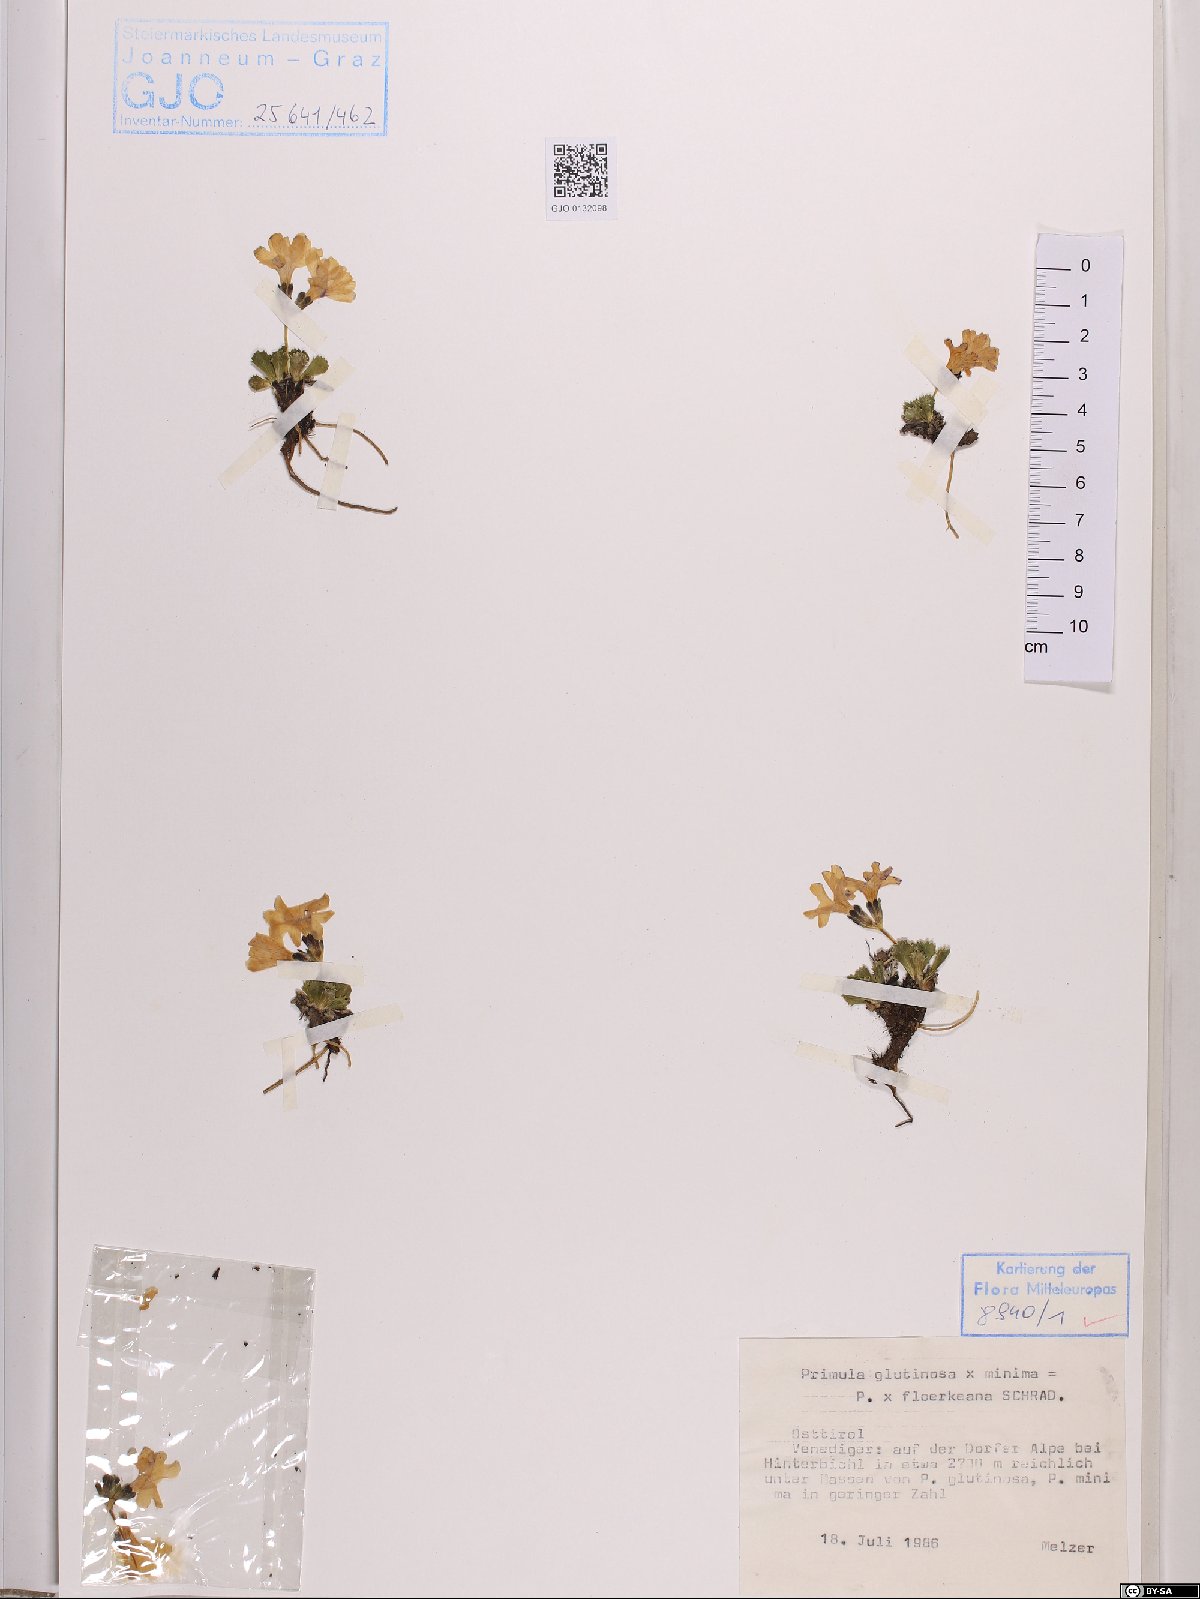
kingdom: Plantae
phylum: Tracheophyta
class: Magnoliopsida
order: Ericales
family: Primulaceae
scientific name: Primulaceae
